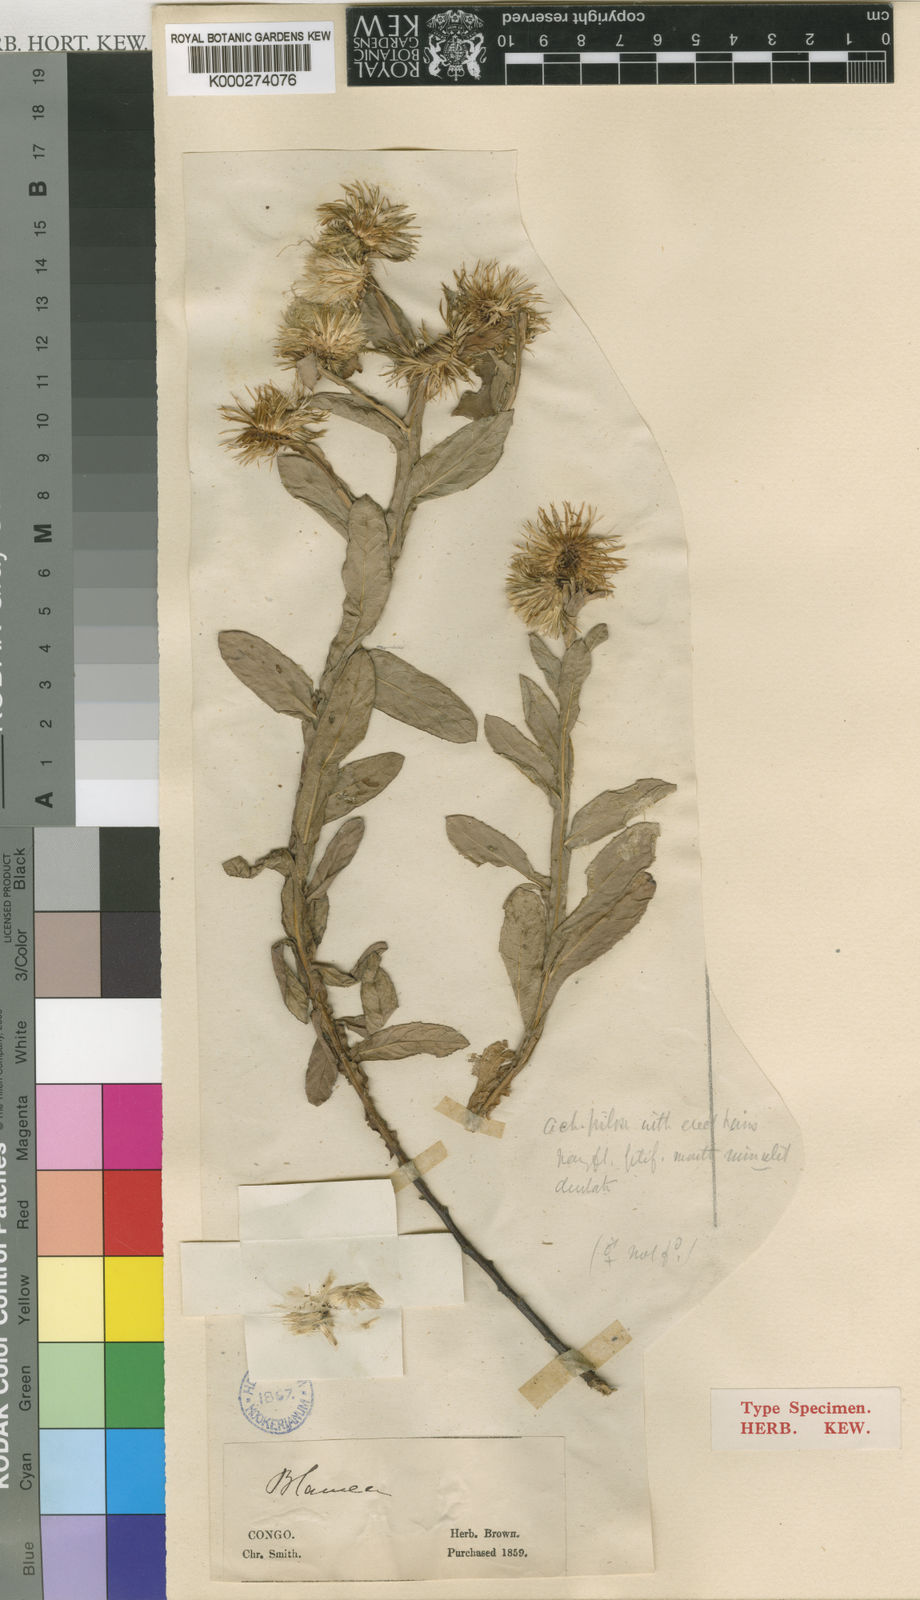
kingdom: Plantae
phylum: Tracheophyta
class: Magnoliopsida
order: Asterales
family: Asteraceae
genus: Laggera
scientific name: Laggera oloptera
